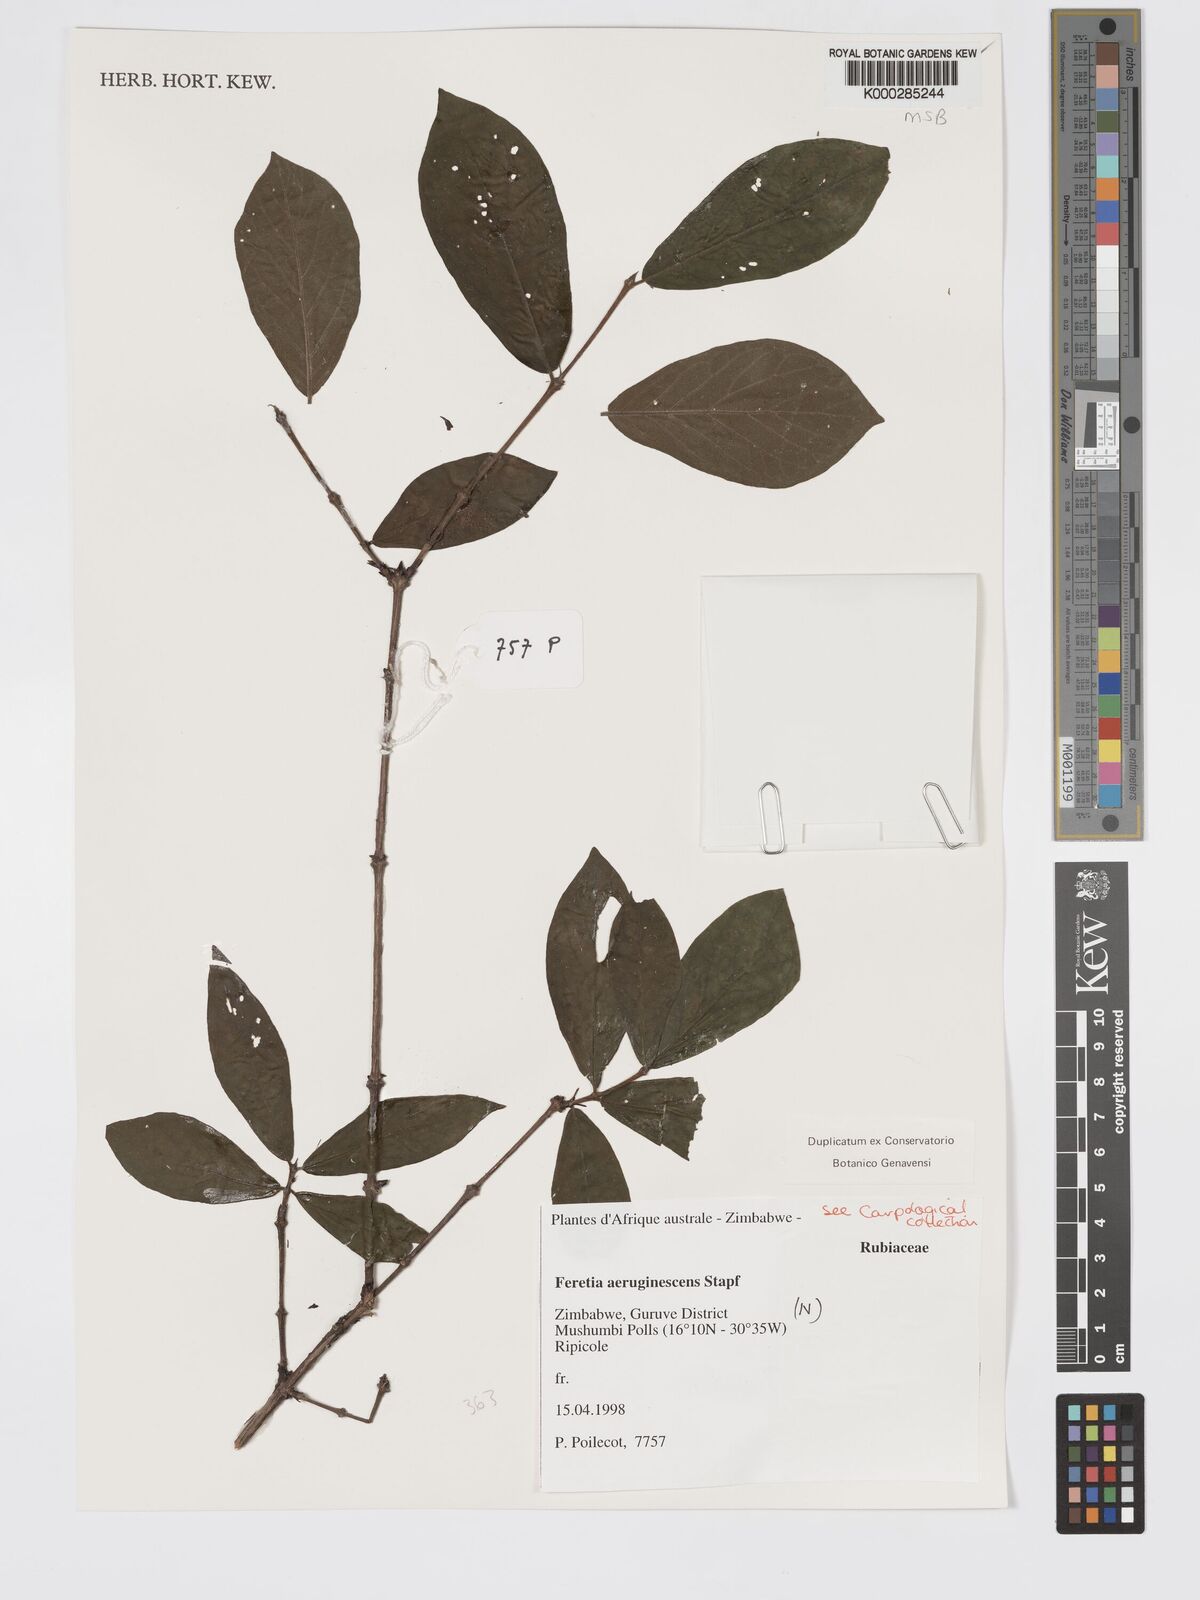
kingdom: Plantae
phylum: Tracheophyta
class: Magnoliopsida
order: Gentianales
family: Rubiaceae
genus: Feretia
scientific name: Feretia aeruginescens
